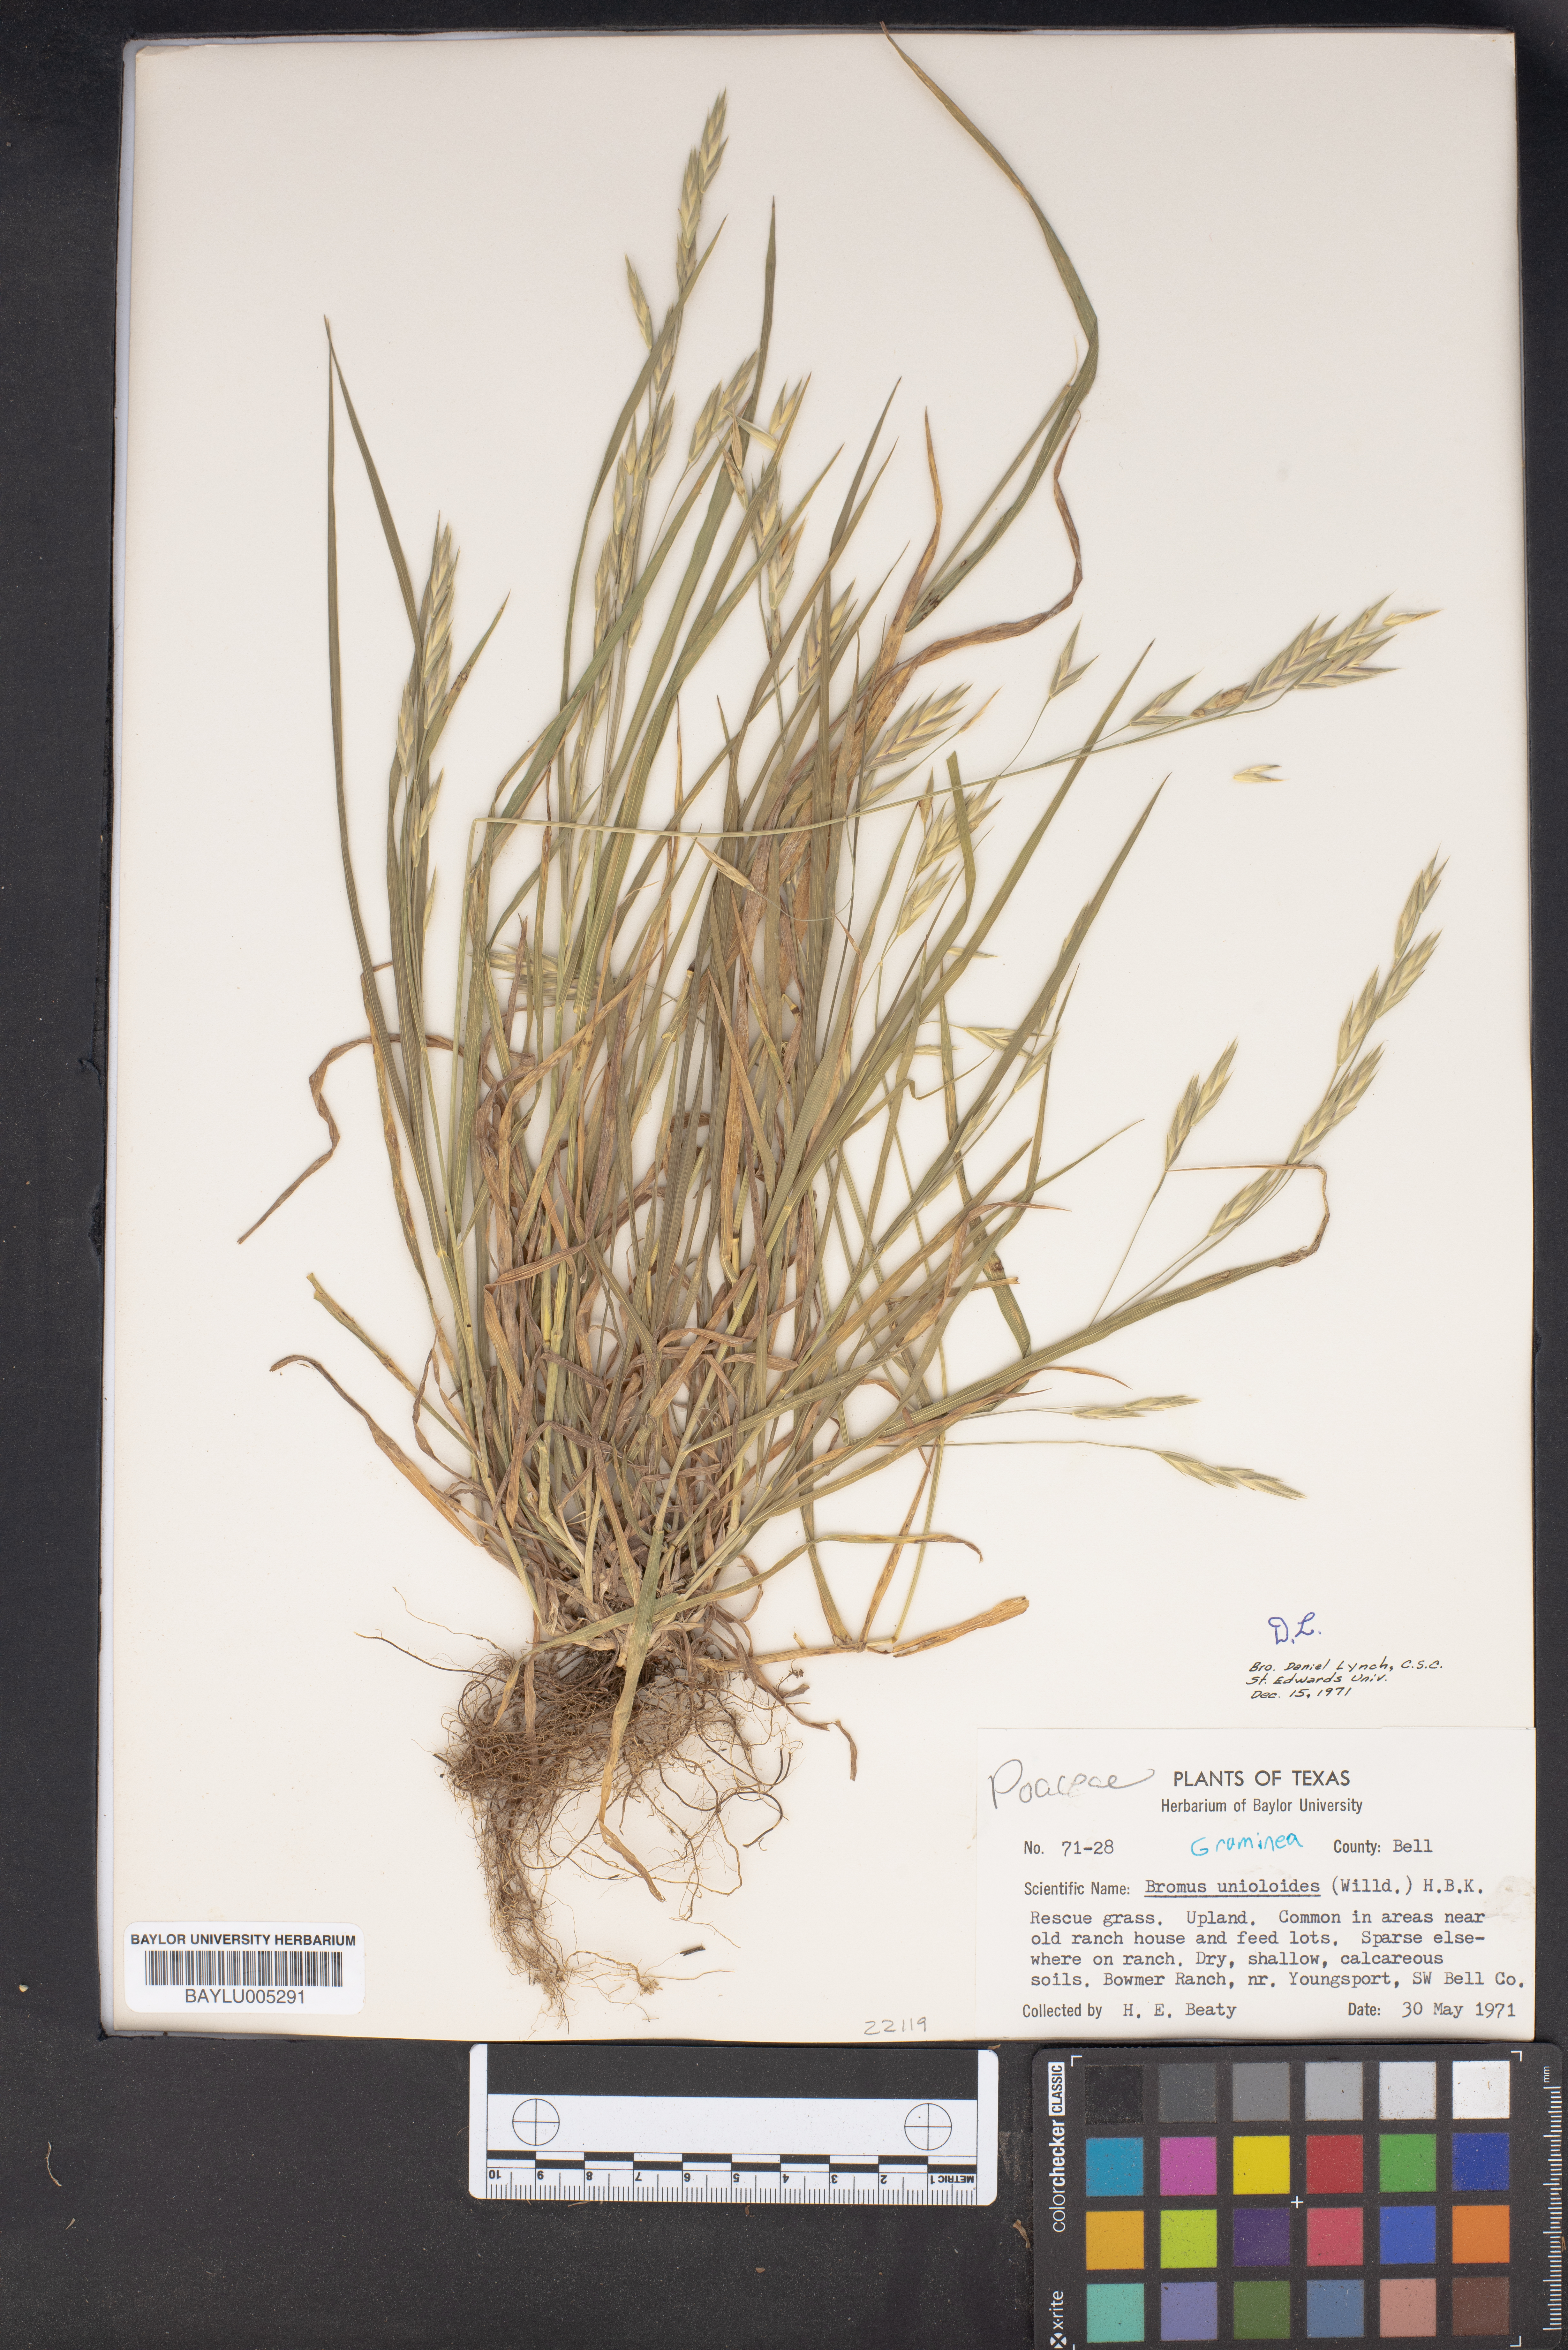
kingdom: Plantae
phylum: Tracheophyta
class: Liliopsida
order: Poales
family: Poaceae
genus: Bromus
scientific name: Bromus catharticus
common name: Rescuegrass
